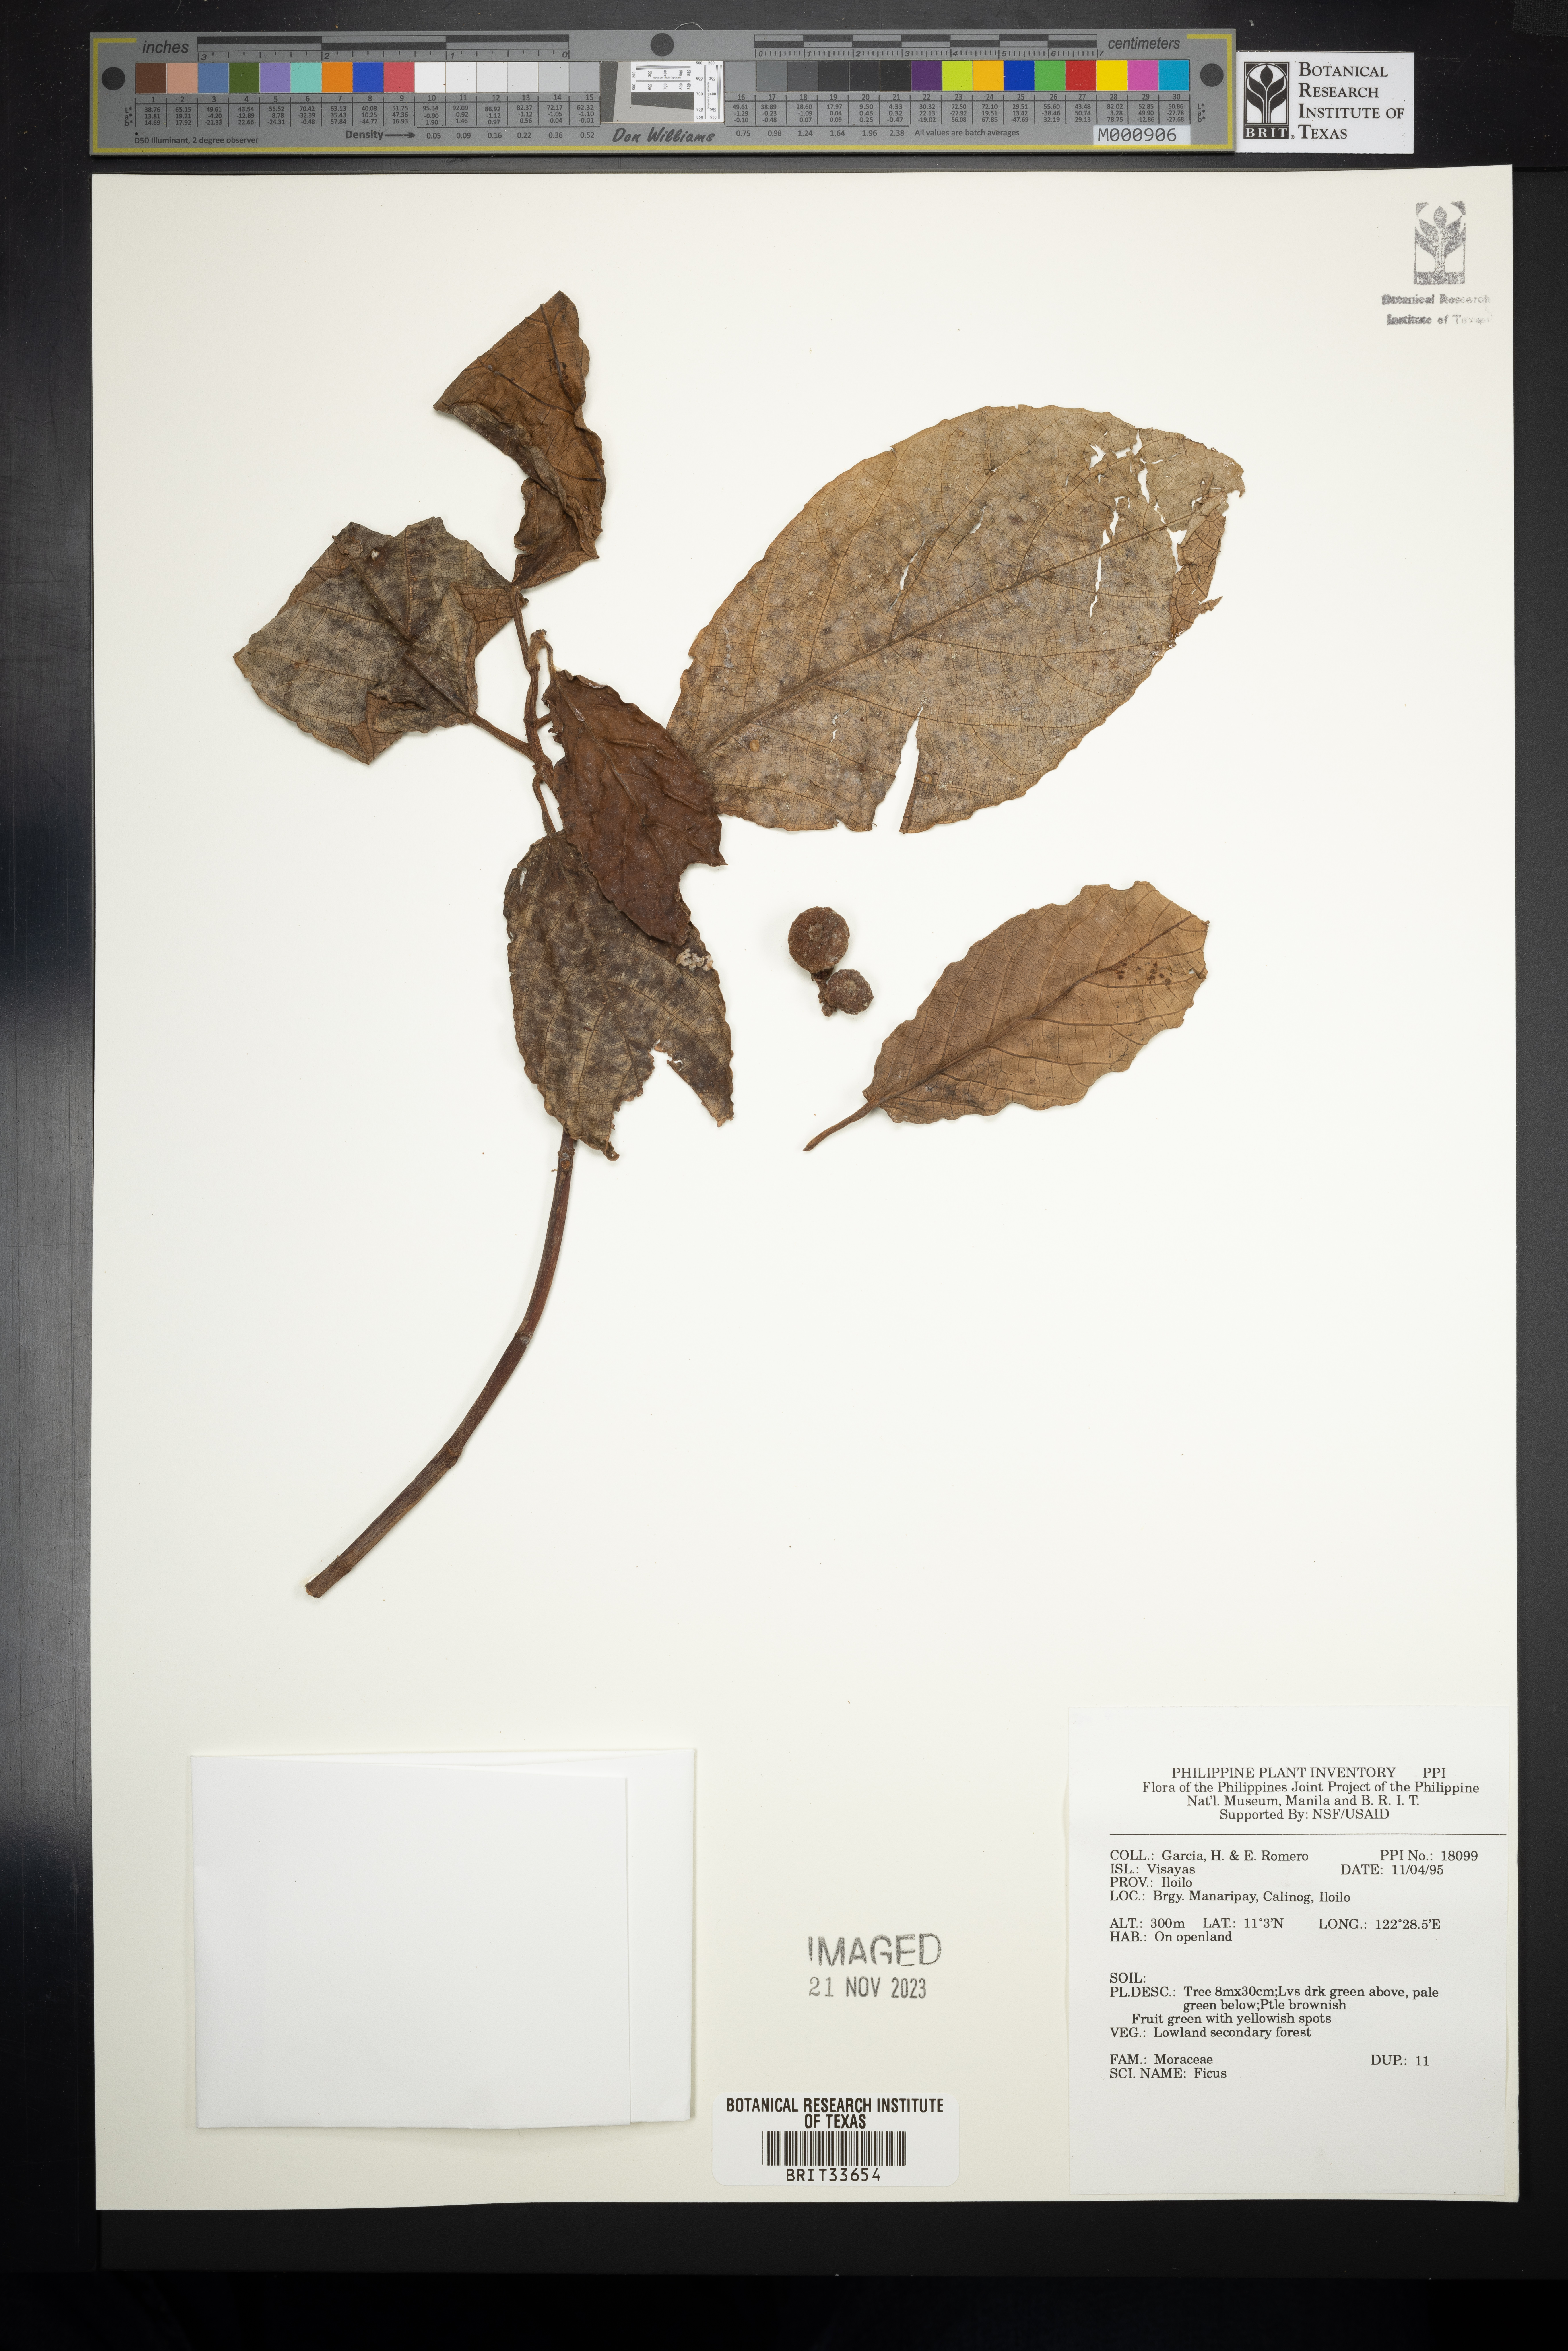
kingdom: Plantae
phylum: Tracheophyta
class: Magnoliopsida
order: Rosales
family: Moraceae
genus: Ficus
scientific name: Ficus
